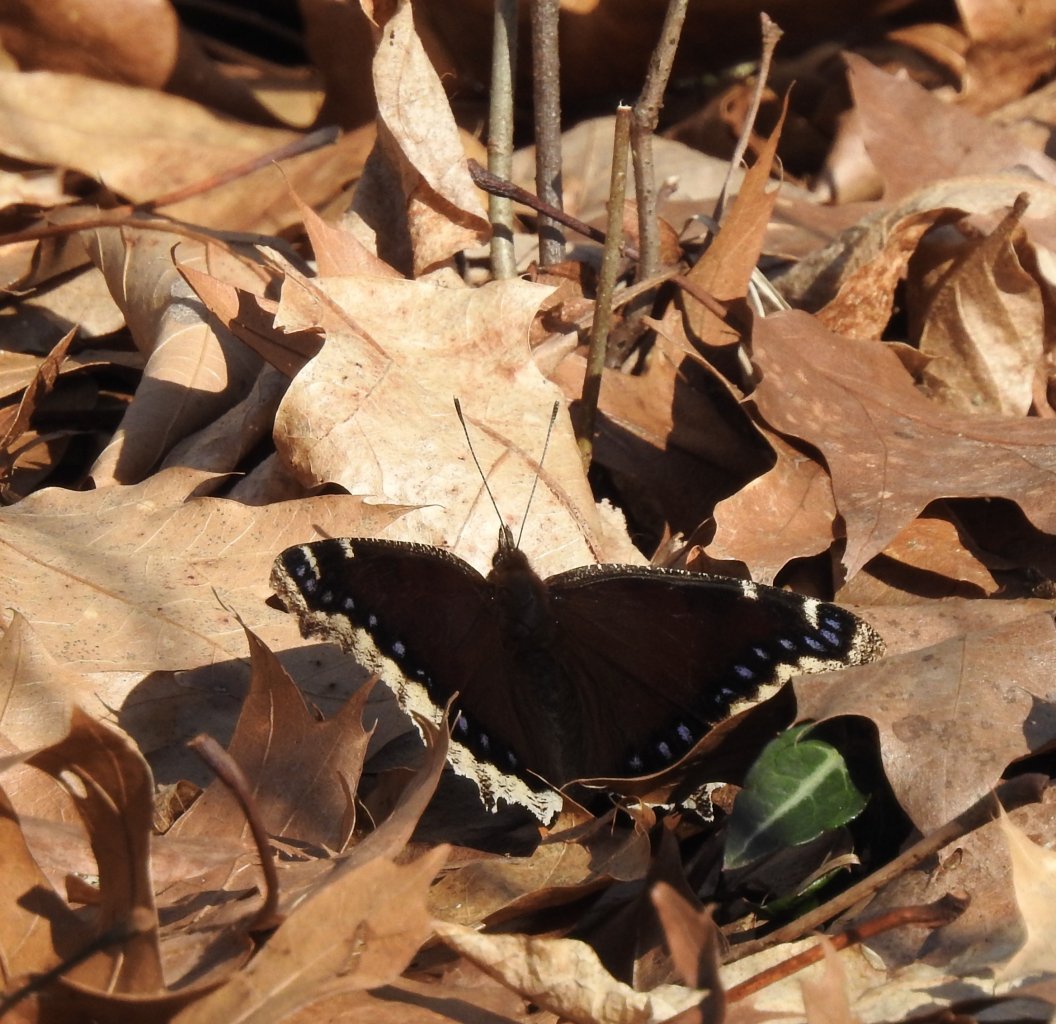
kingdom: Animalia
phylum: Arthropoda
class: Insecta
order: Lepidoptera
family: Nymphalidae
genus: Nymphalis
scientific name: Nymphalis antiopa
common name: Mourning Cloak
